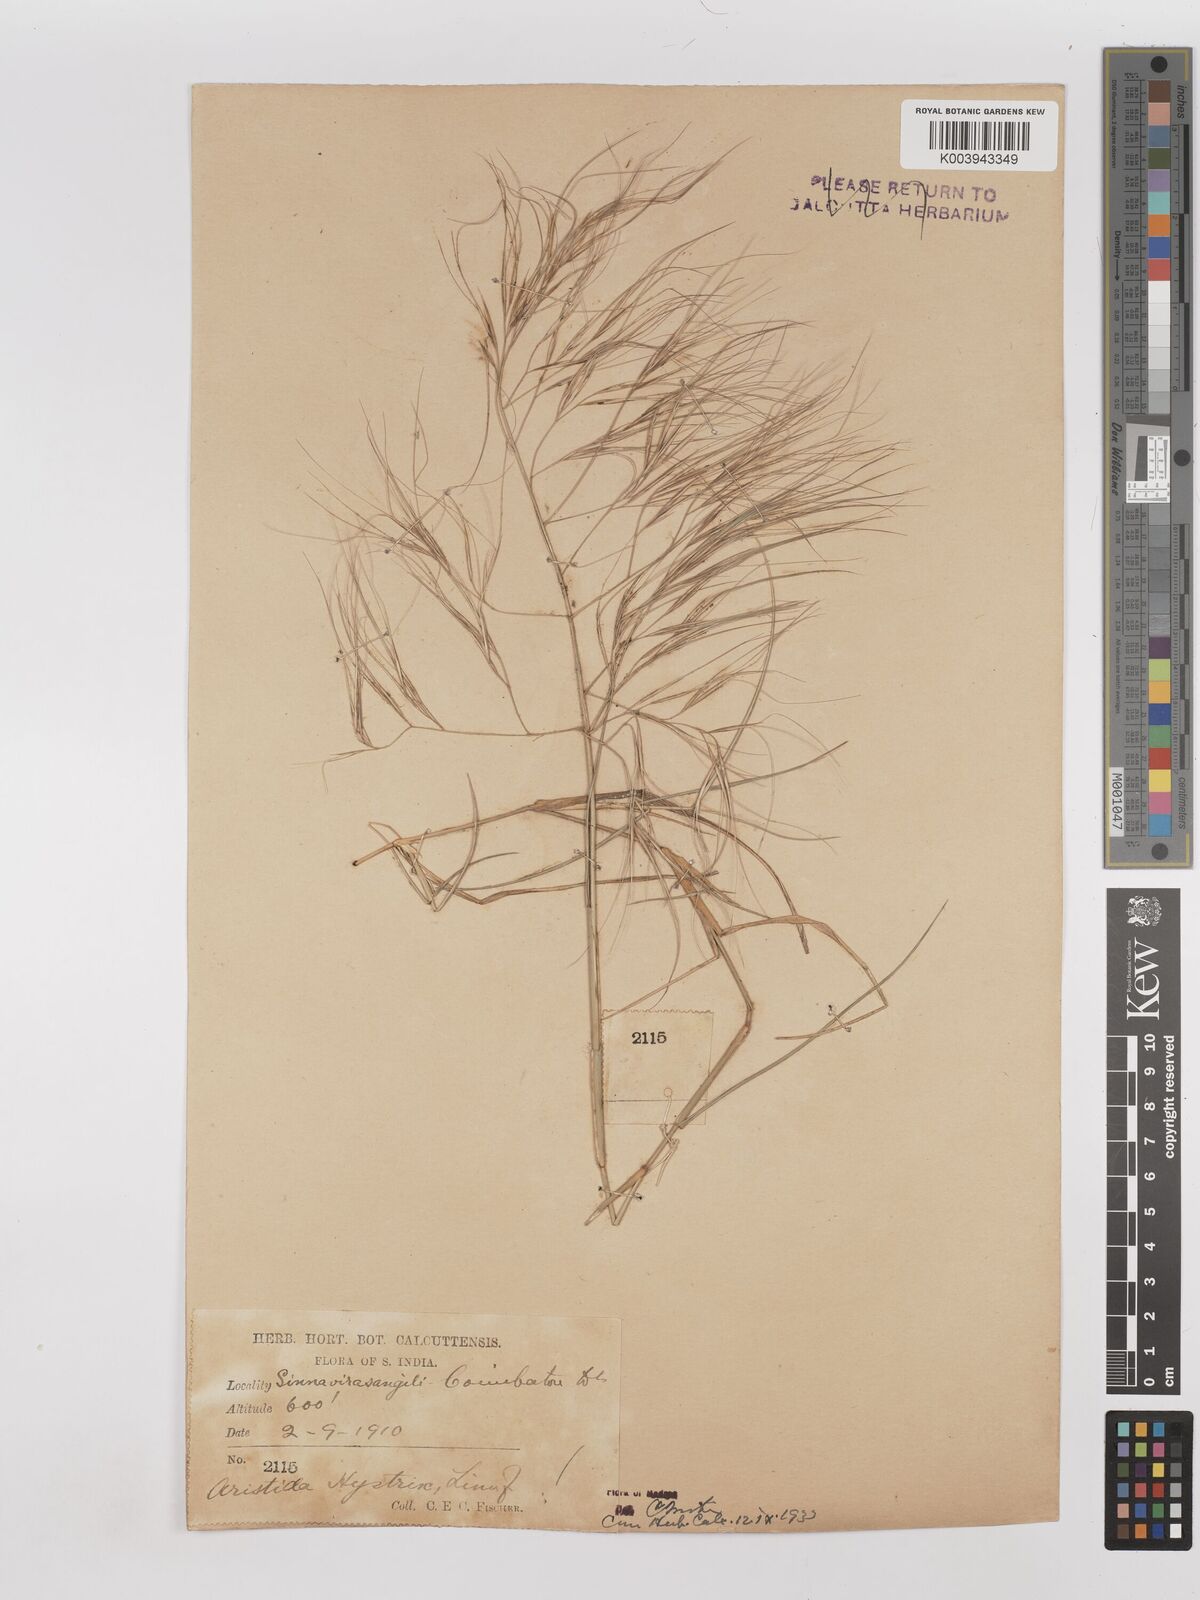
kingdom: Plantae
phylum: Tracheophyta
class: Liliopsida
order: Poales
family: Poaceae
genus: Aristida
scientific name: Aristida hystrix
